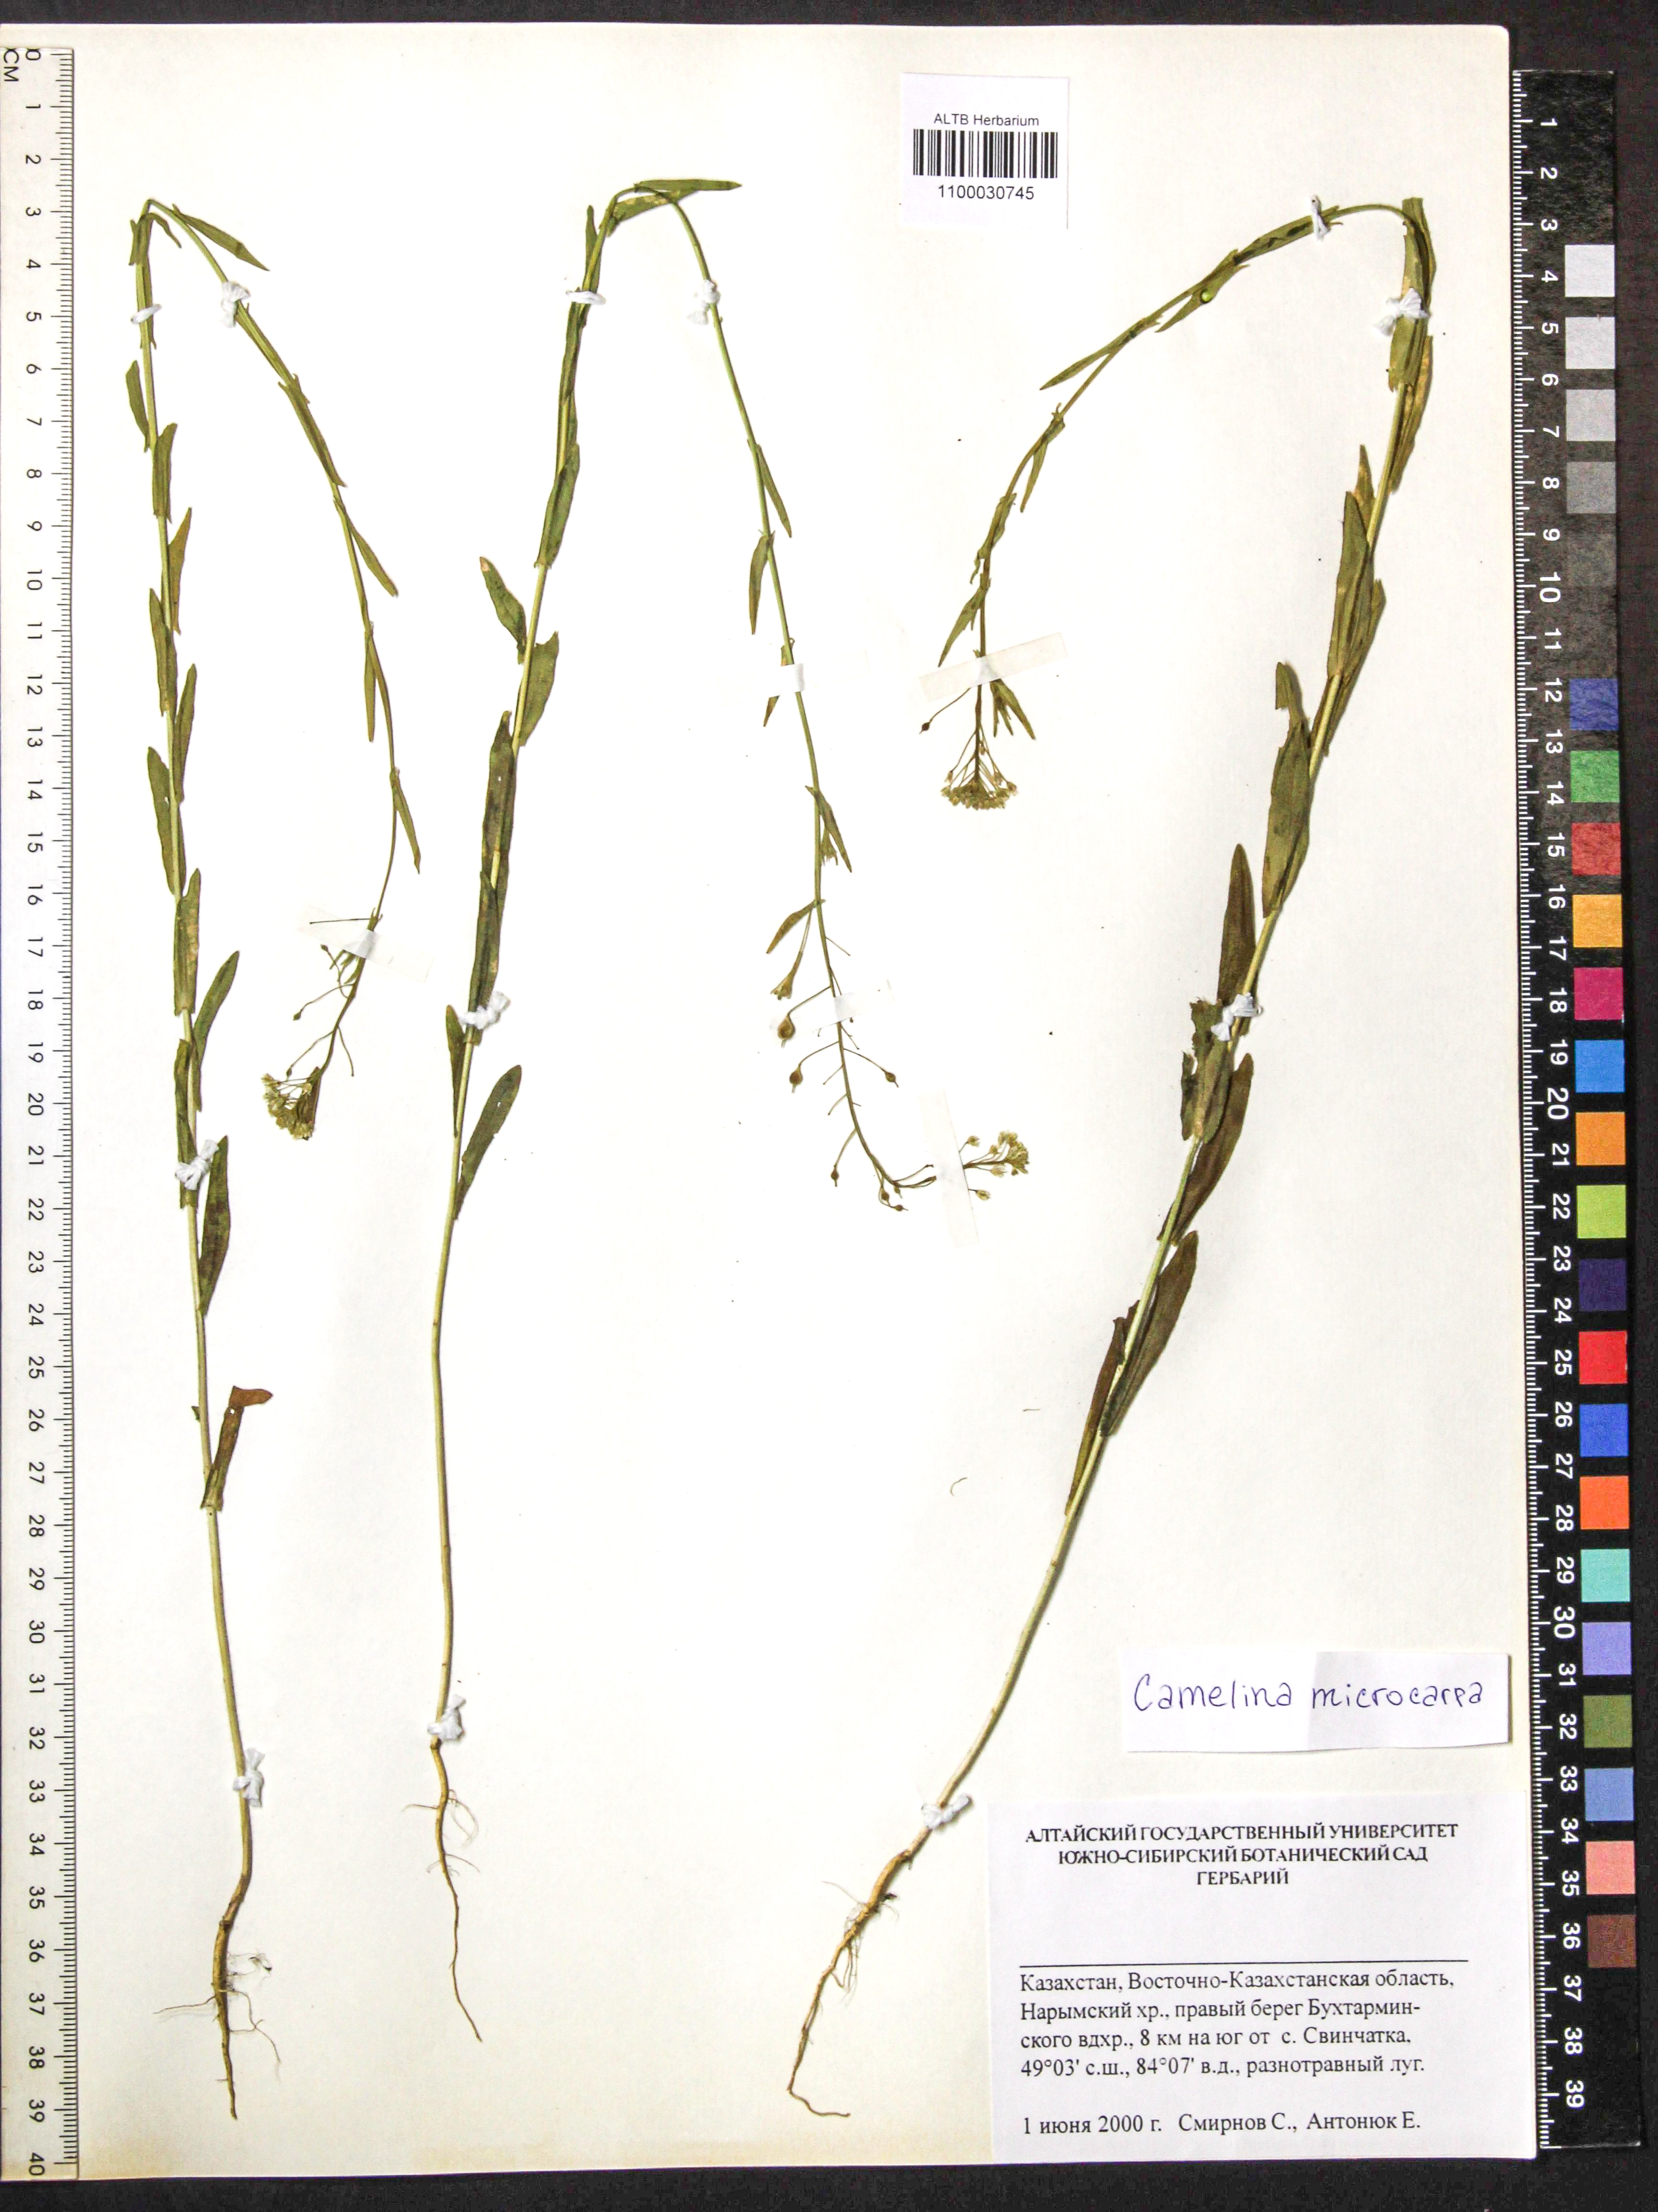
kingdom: Plantae
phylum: Tracheophyta
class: Magnoliopsida
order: Brassicales
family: Brassicaceae
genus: Camelina
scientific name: Camelina microcarpa
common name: Lesser gold-of-pleasure
